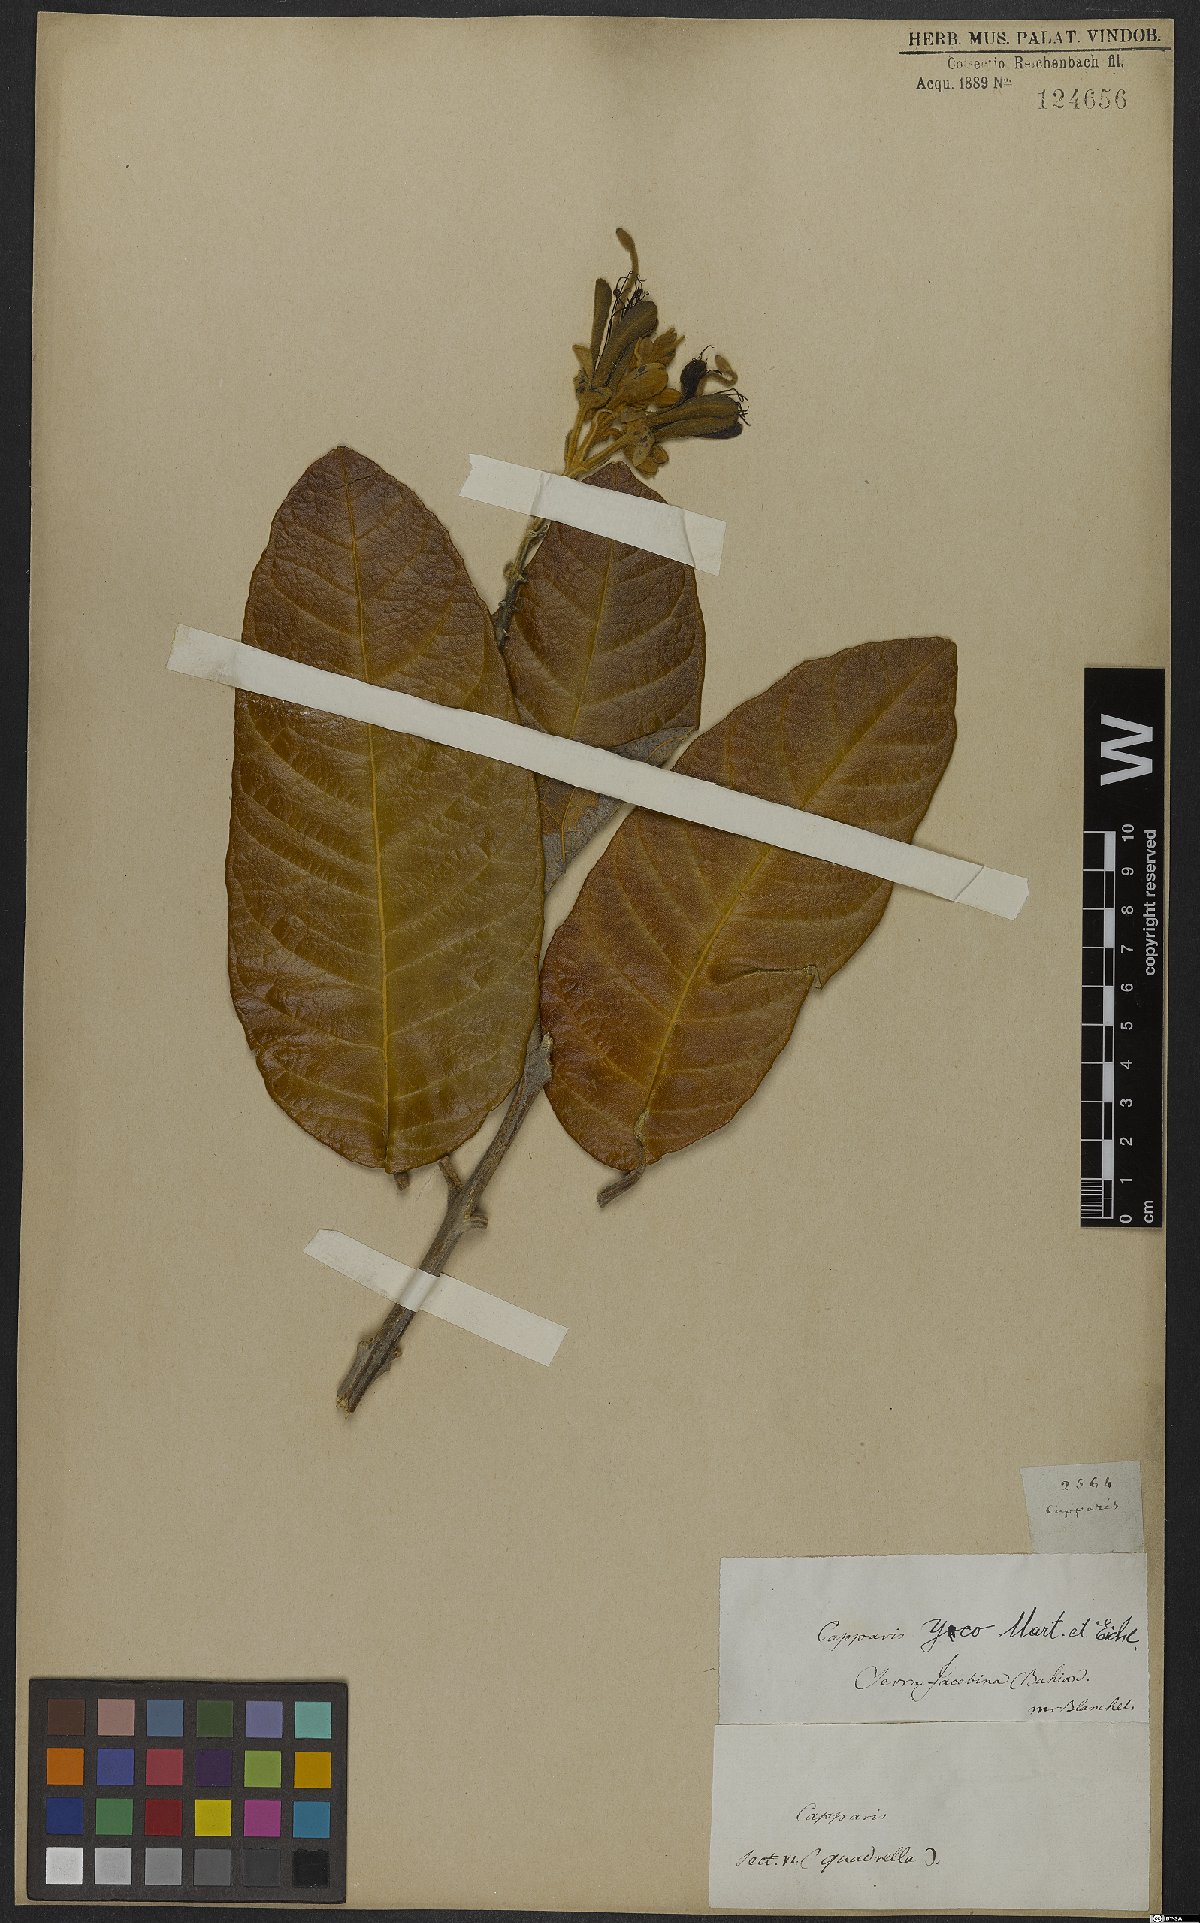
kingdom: Plantae
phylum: Tracheophyta
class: Magnoliopsida
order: Brassicales
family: Capparaceae
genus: Colicodendron
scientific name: Colicodendron yco
